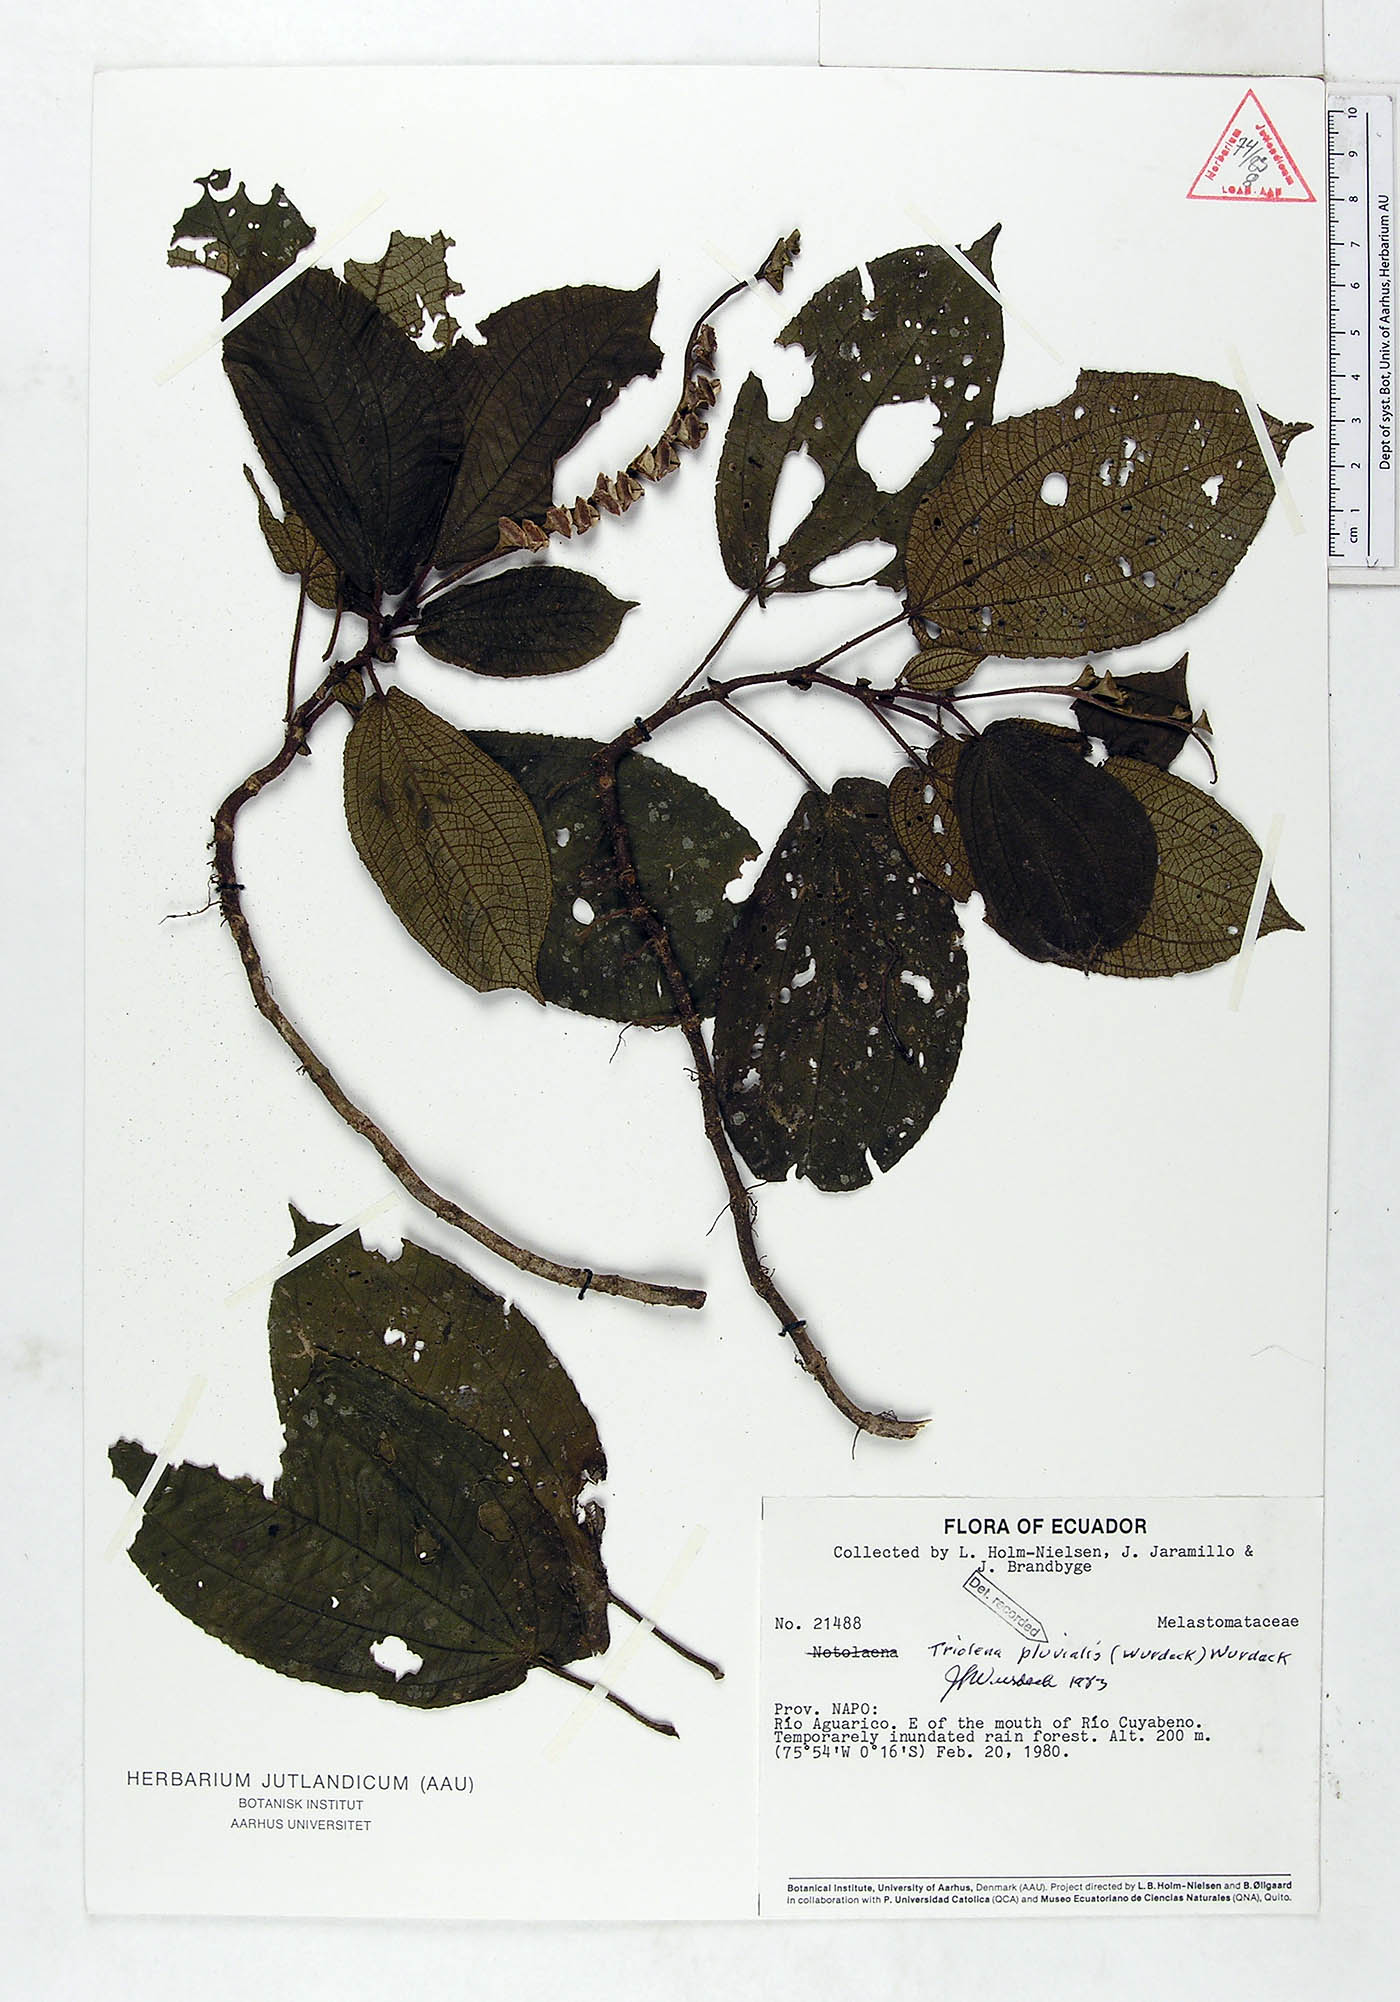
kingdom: Plantae
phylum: Tracheophyta
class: Magnoliopsida
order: Myrtales
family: Melastomataceae
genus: Triolena
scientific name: Triolena pluvialis
